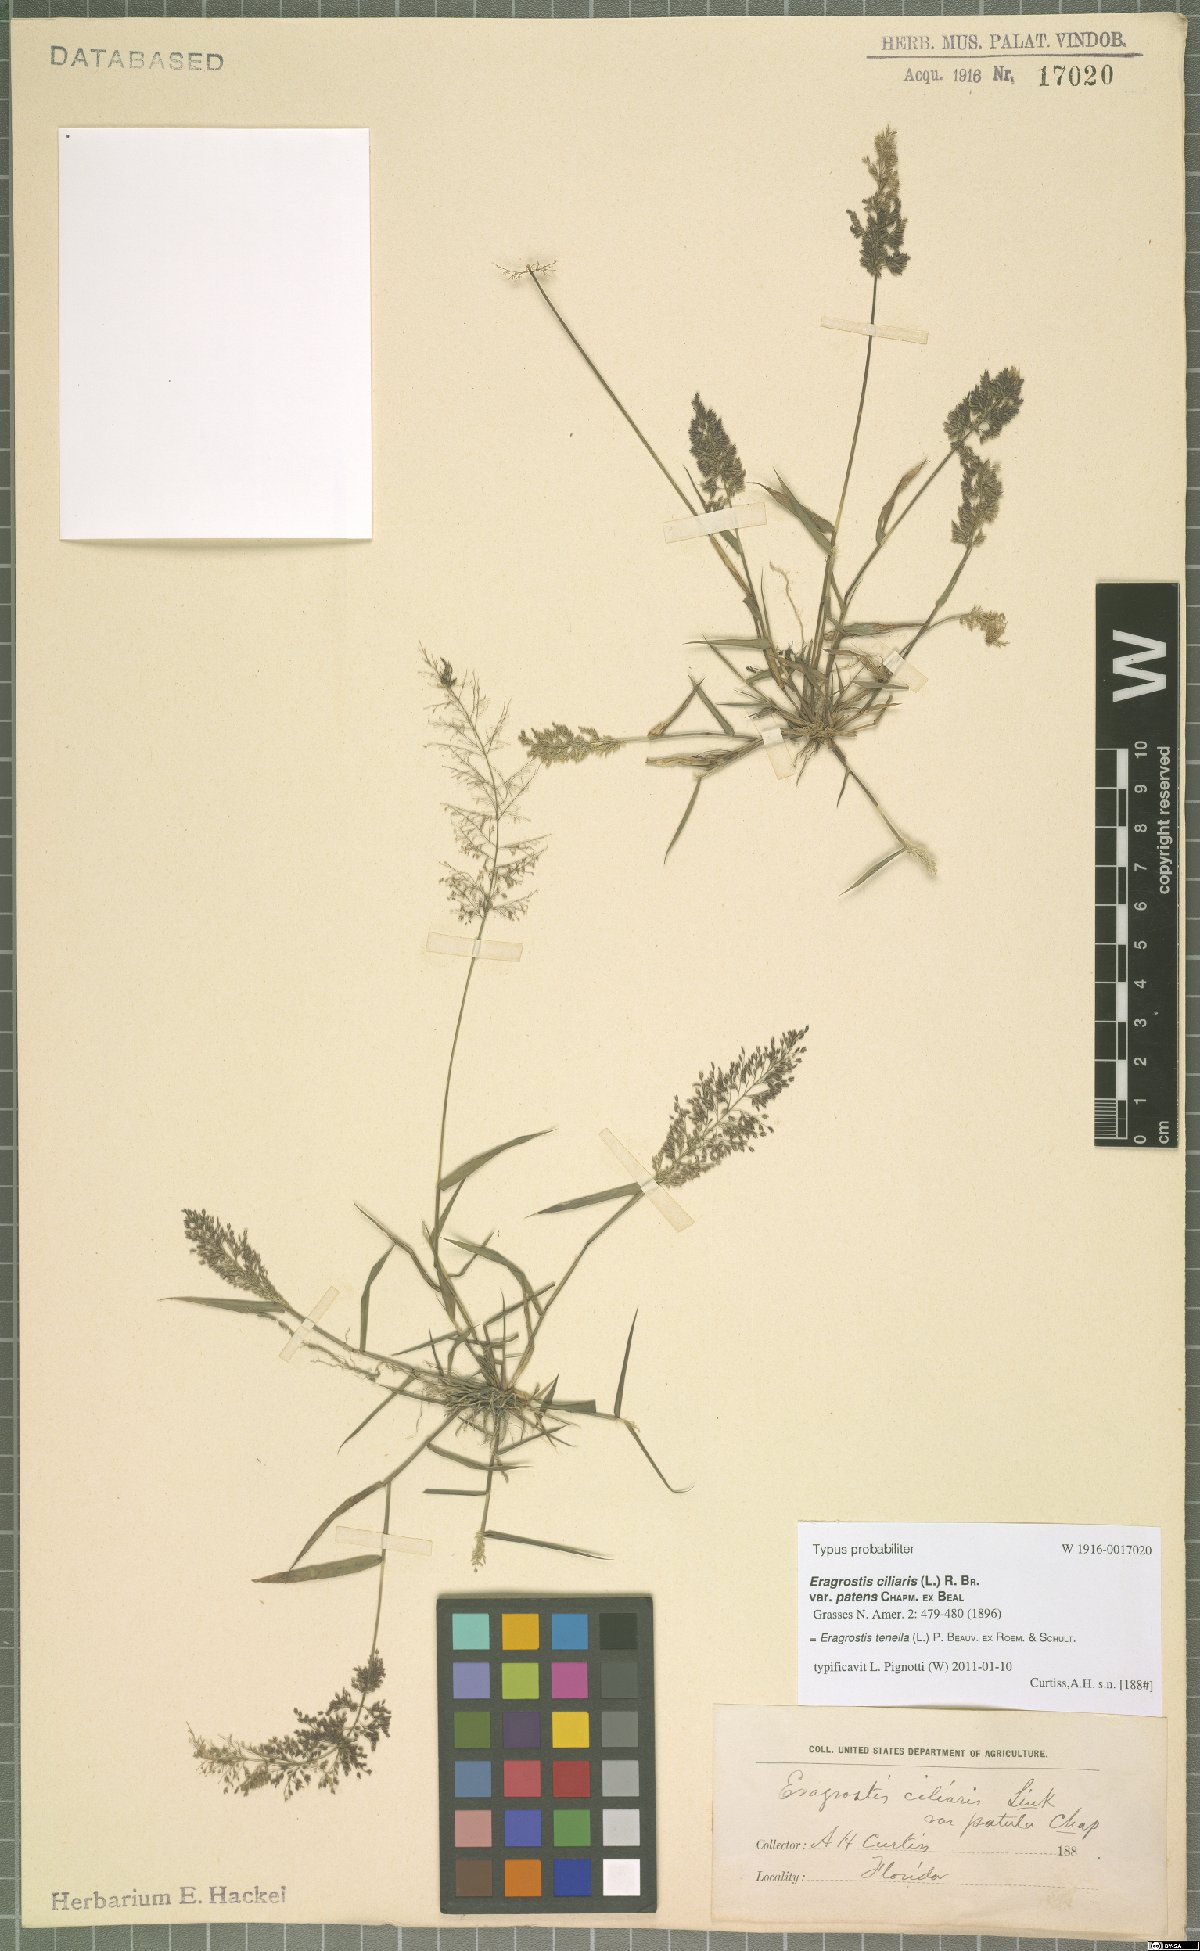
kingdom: Plantae
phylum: Tracheophyta
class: Liliopsida
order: Poales
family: Poaceae
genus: Eragrostis
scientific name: Eragrostis tenella
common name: Japanese lovegrass
